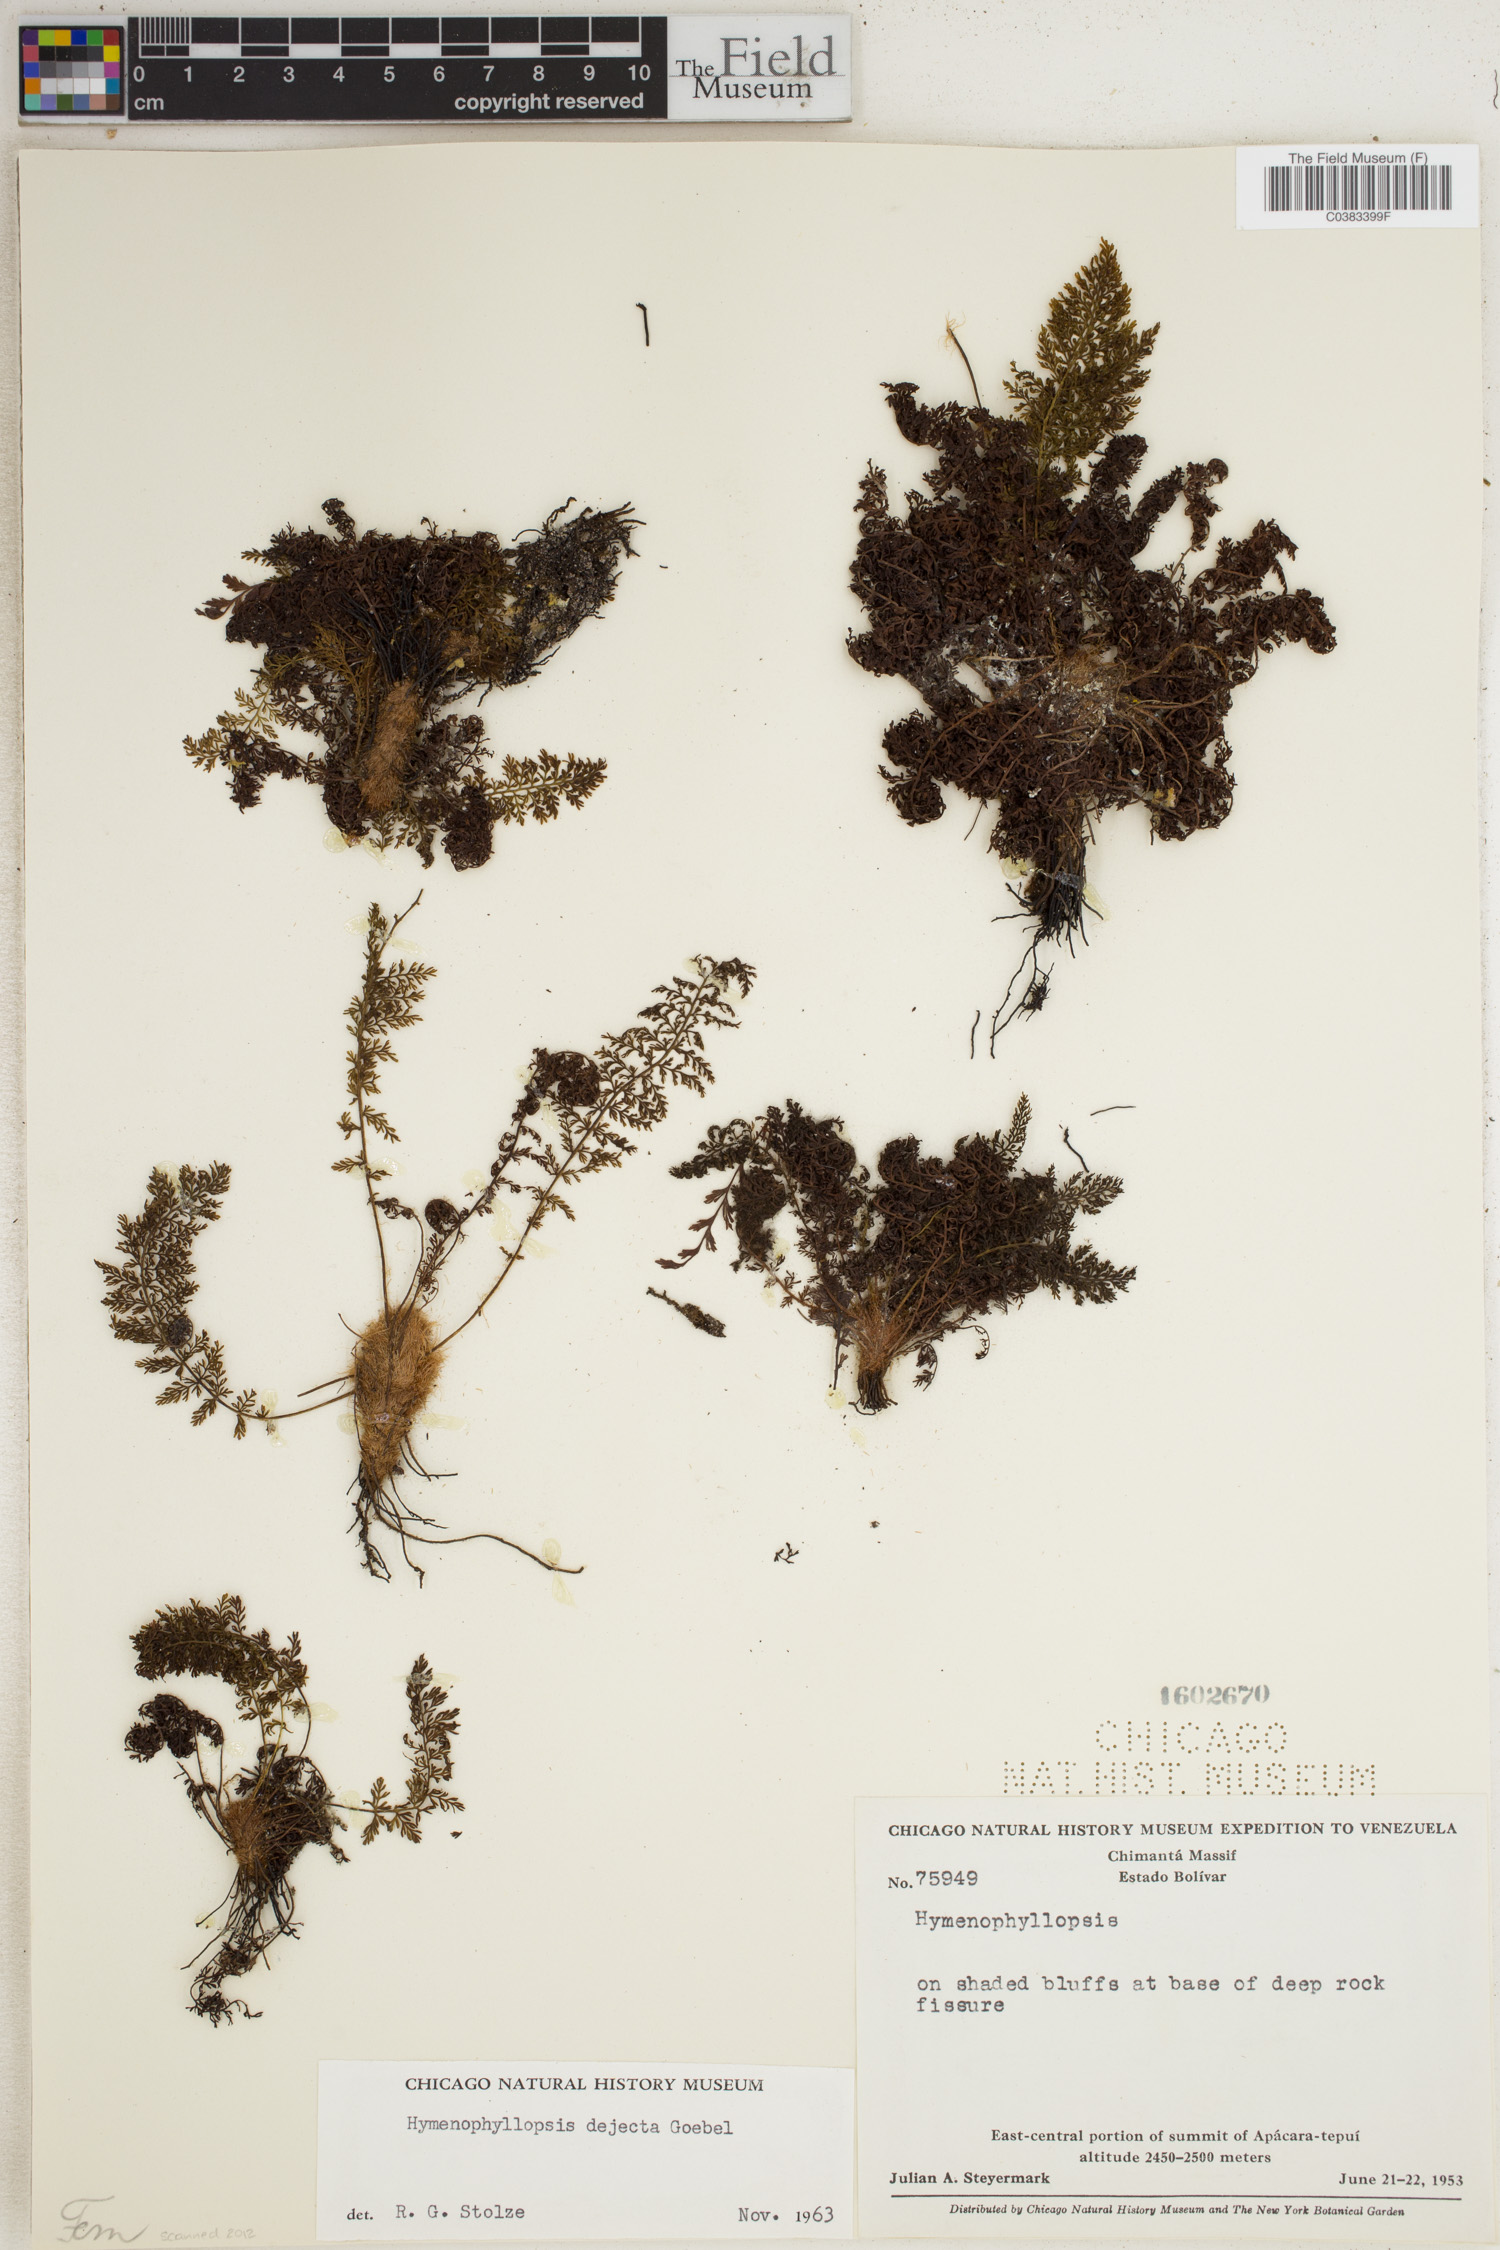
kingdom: Plantae
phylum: Tracheophyta
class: Polypodiopsida
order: Cyatheales
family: Cyatheaceae
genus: Cyathea
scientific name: Cyathea dejecta
